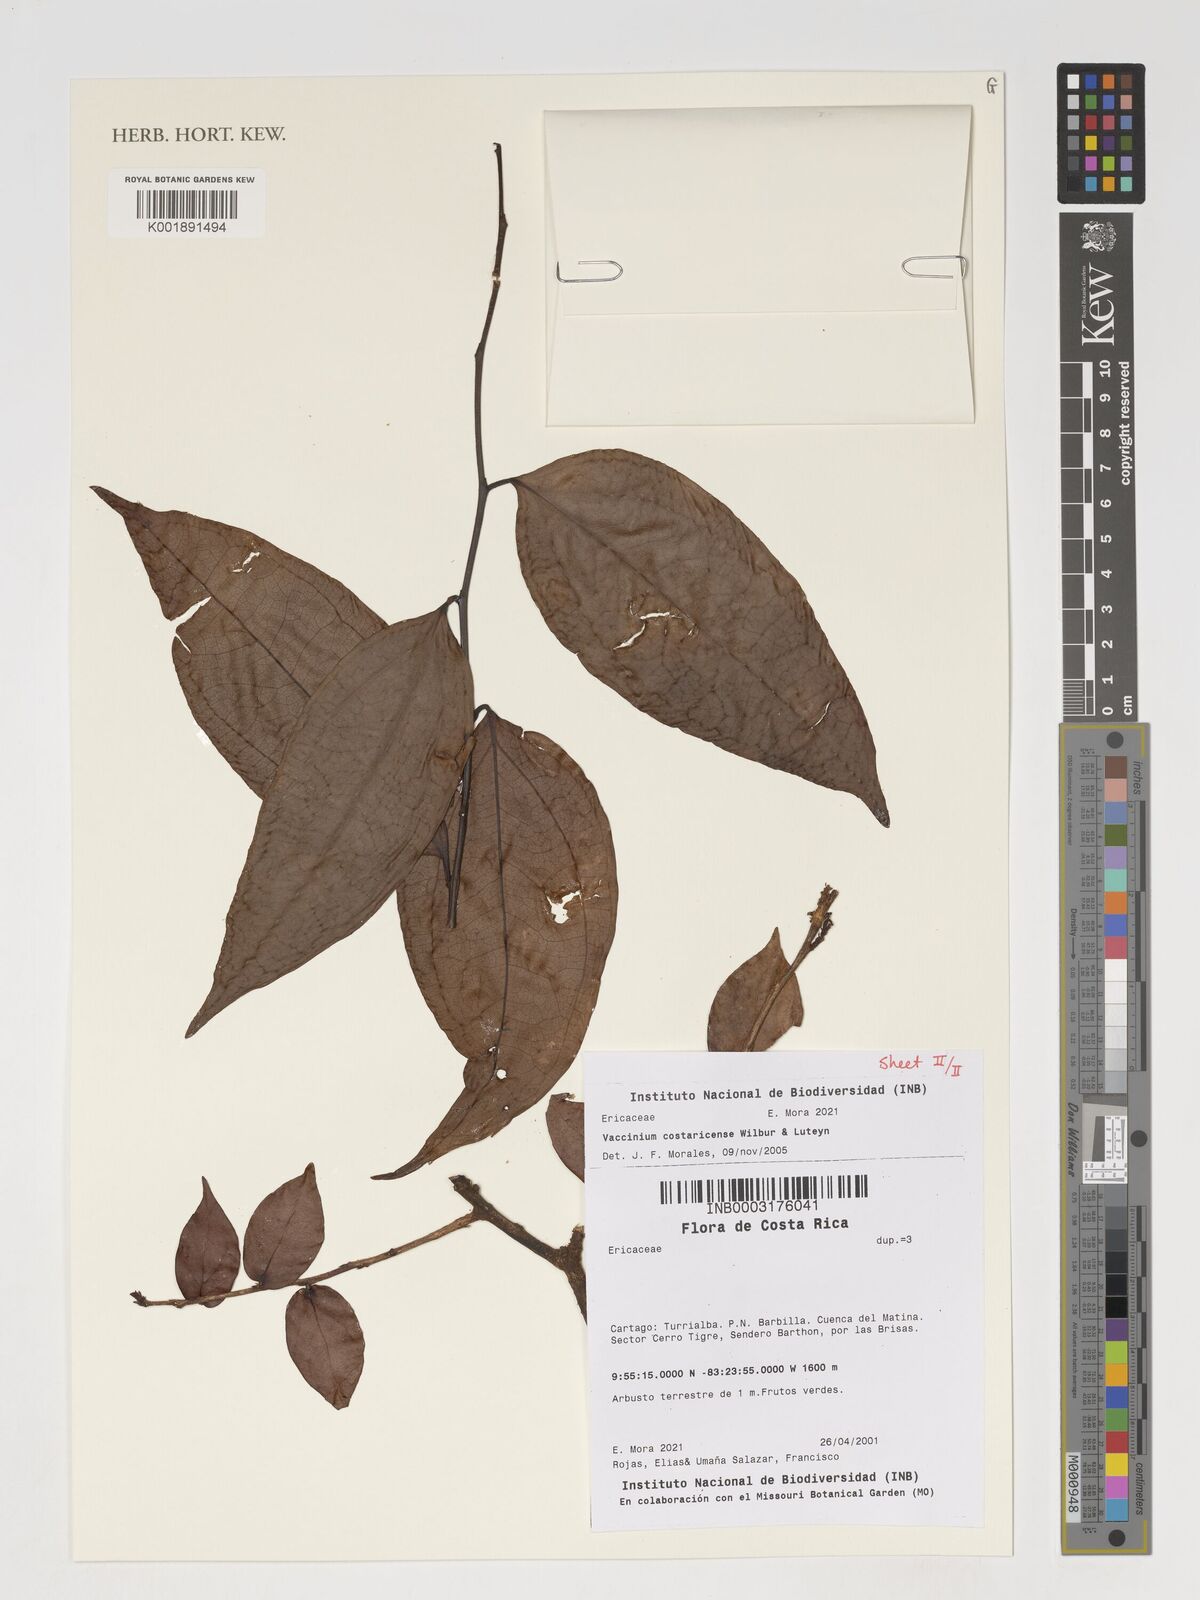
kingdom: Plantae
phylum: Tracheophyta
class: Magnoliopsida
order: Ericales
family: Ericaceae
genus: Symphysia
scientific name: Symphysia costaricensis
